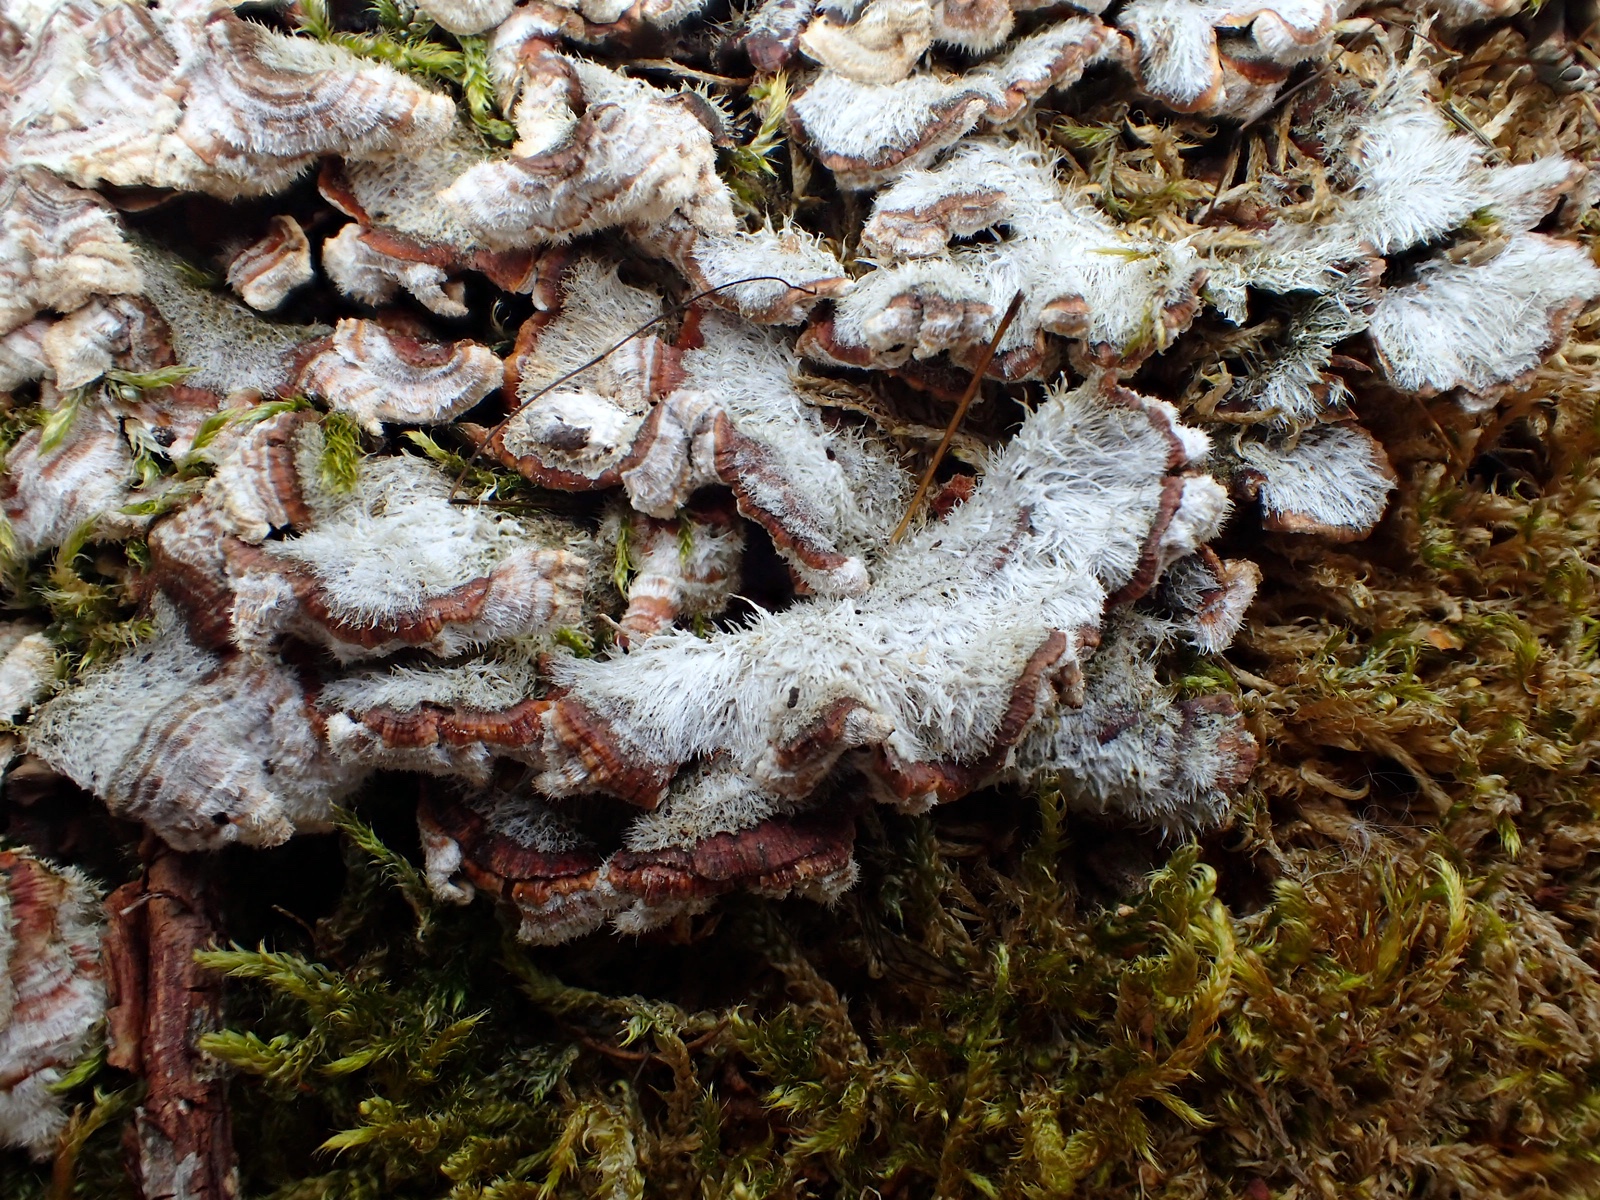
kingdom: Fungi
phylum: Basidiomycota
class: Agaricomycetes
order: Russulales
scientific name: Russulales
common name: skørhatordenen
